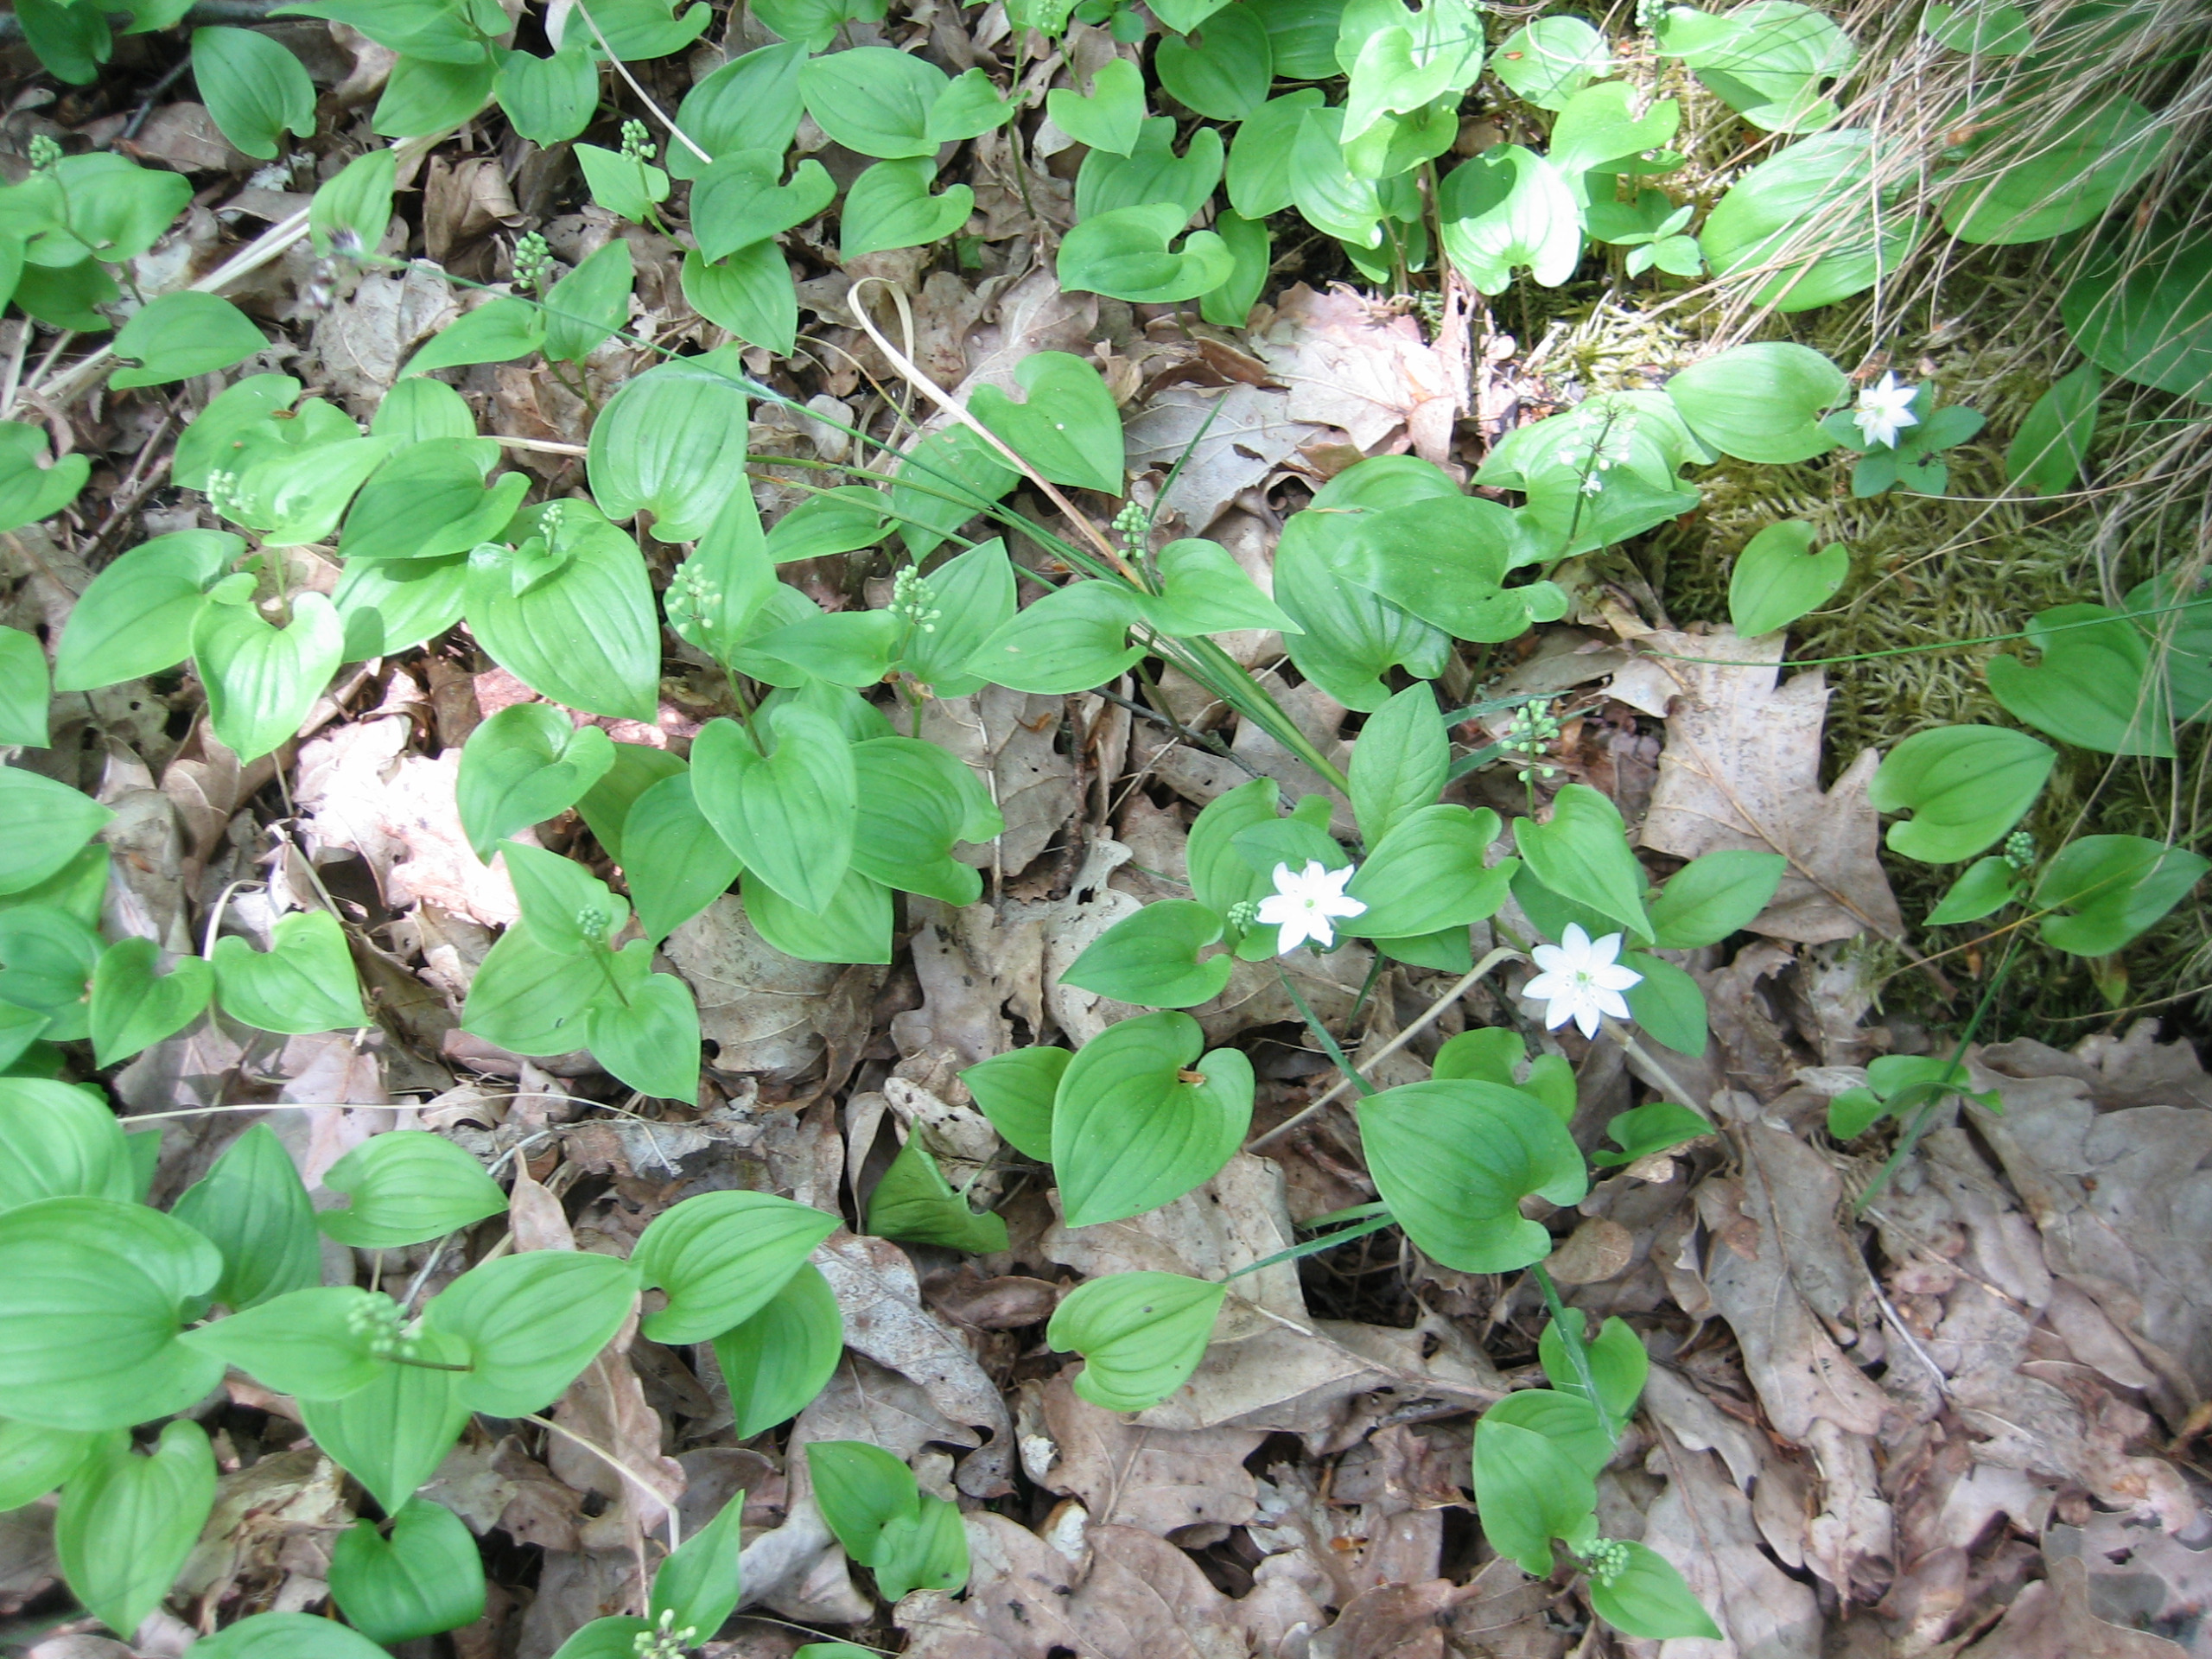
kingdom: Plantae
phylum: Tracheophyta
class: Liliopsida
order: Asparagales
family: Asparagaceae
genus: Maianthemum
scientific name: Maianthemum bifolium
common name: Majblomst
